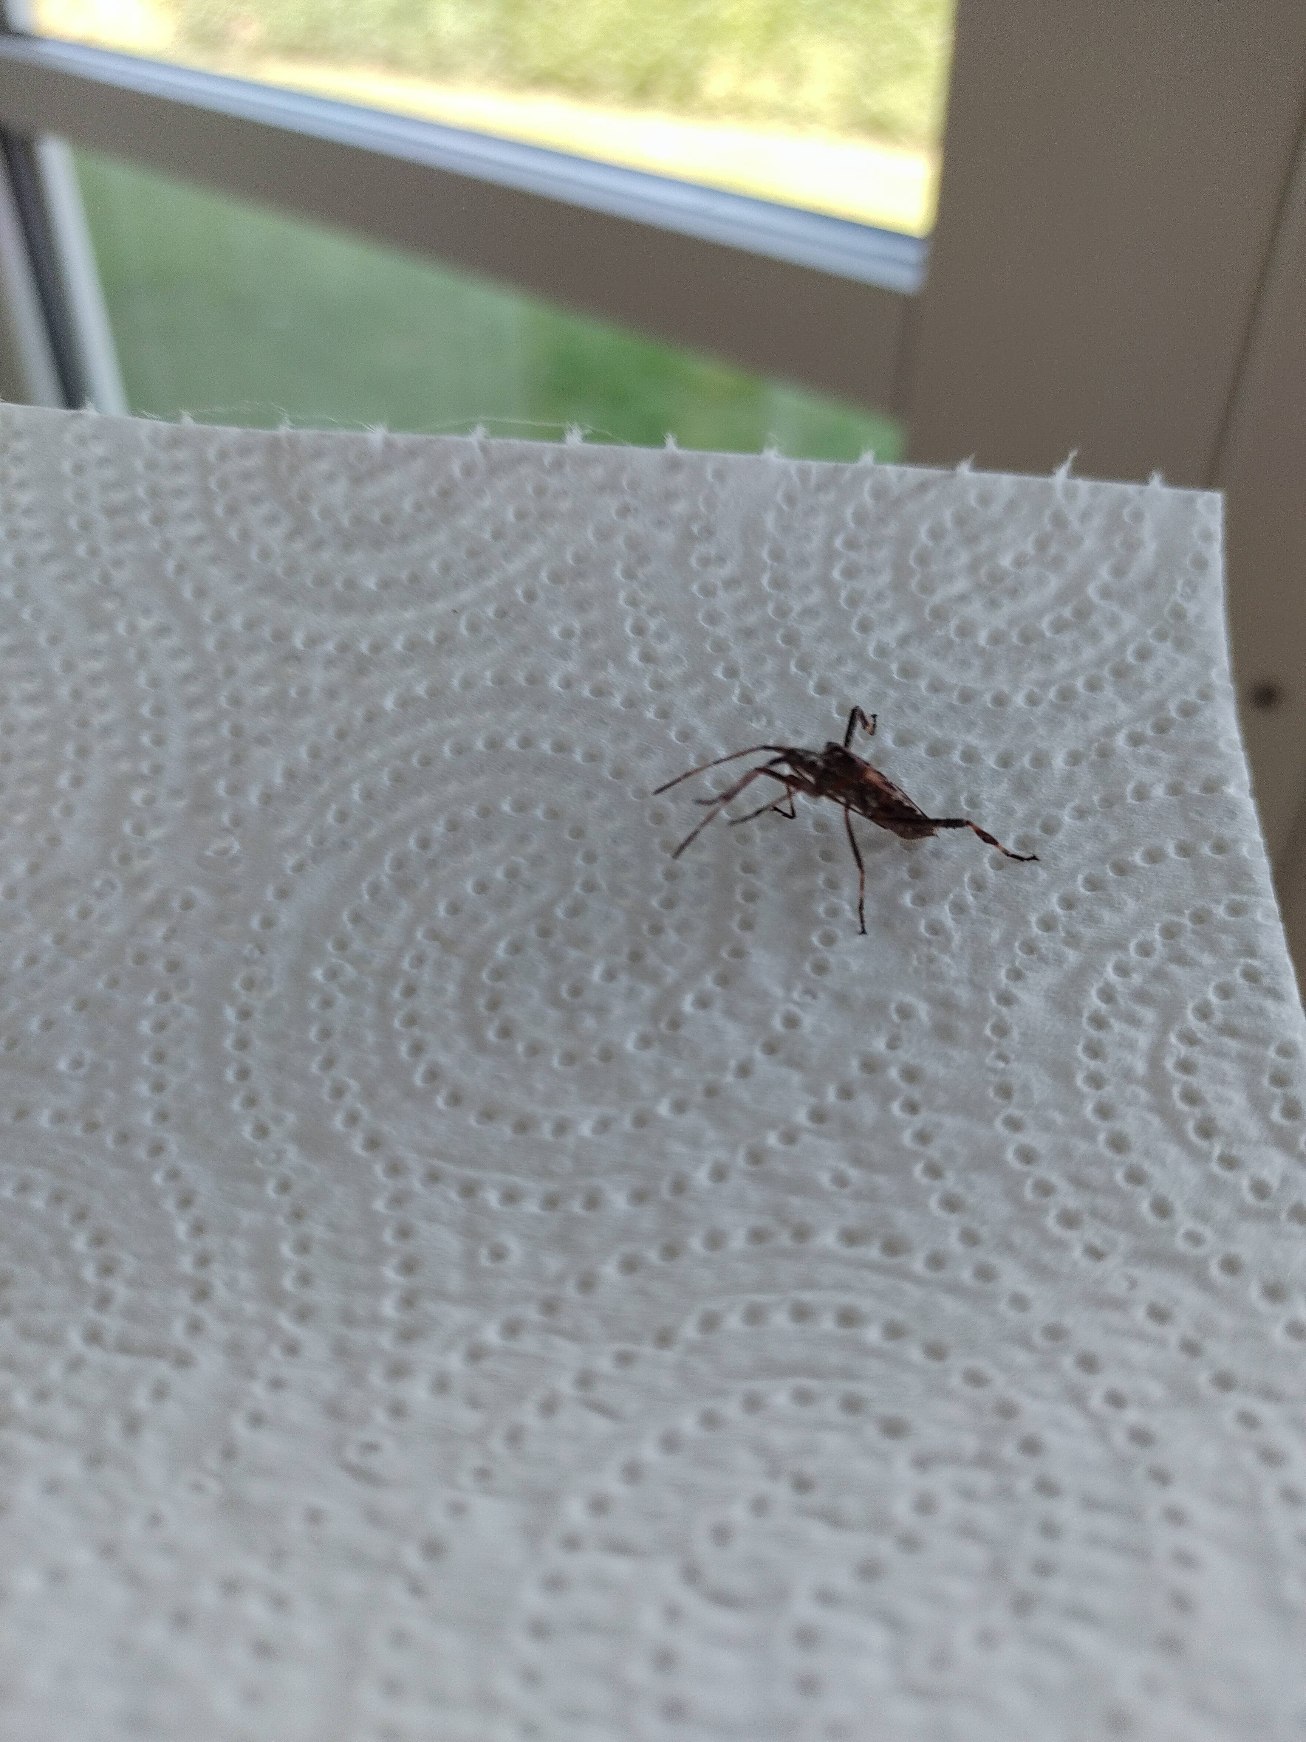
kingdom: Animalia
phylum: Arthropoda
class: Insecta
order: Hemiptera
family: Coreidae
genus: Leptoglossus
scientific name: Leptoglossus occidentalis
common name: Amerikansk fyrretæge
